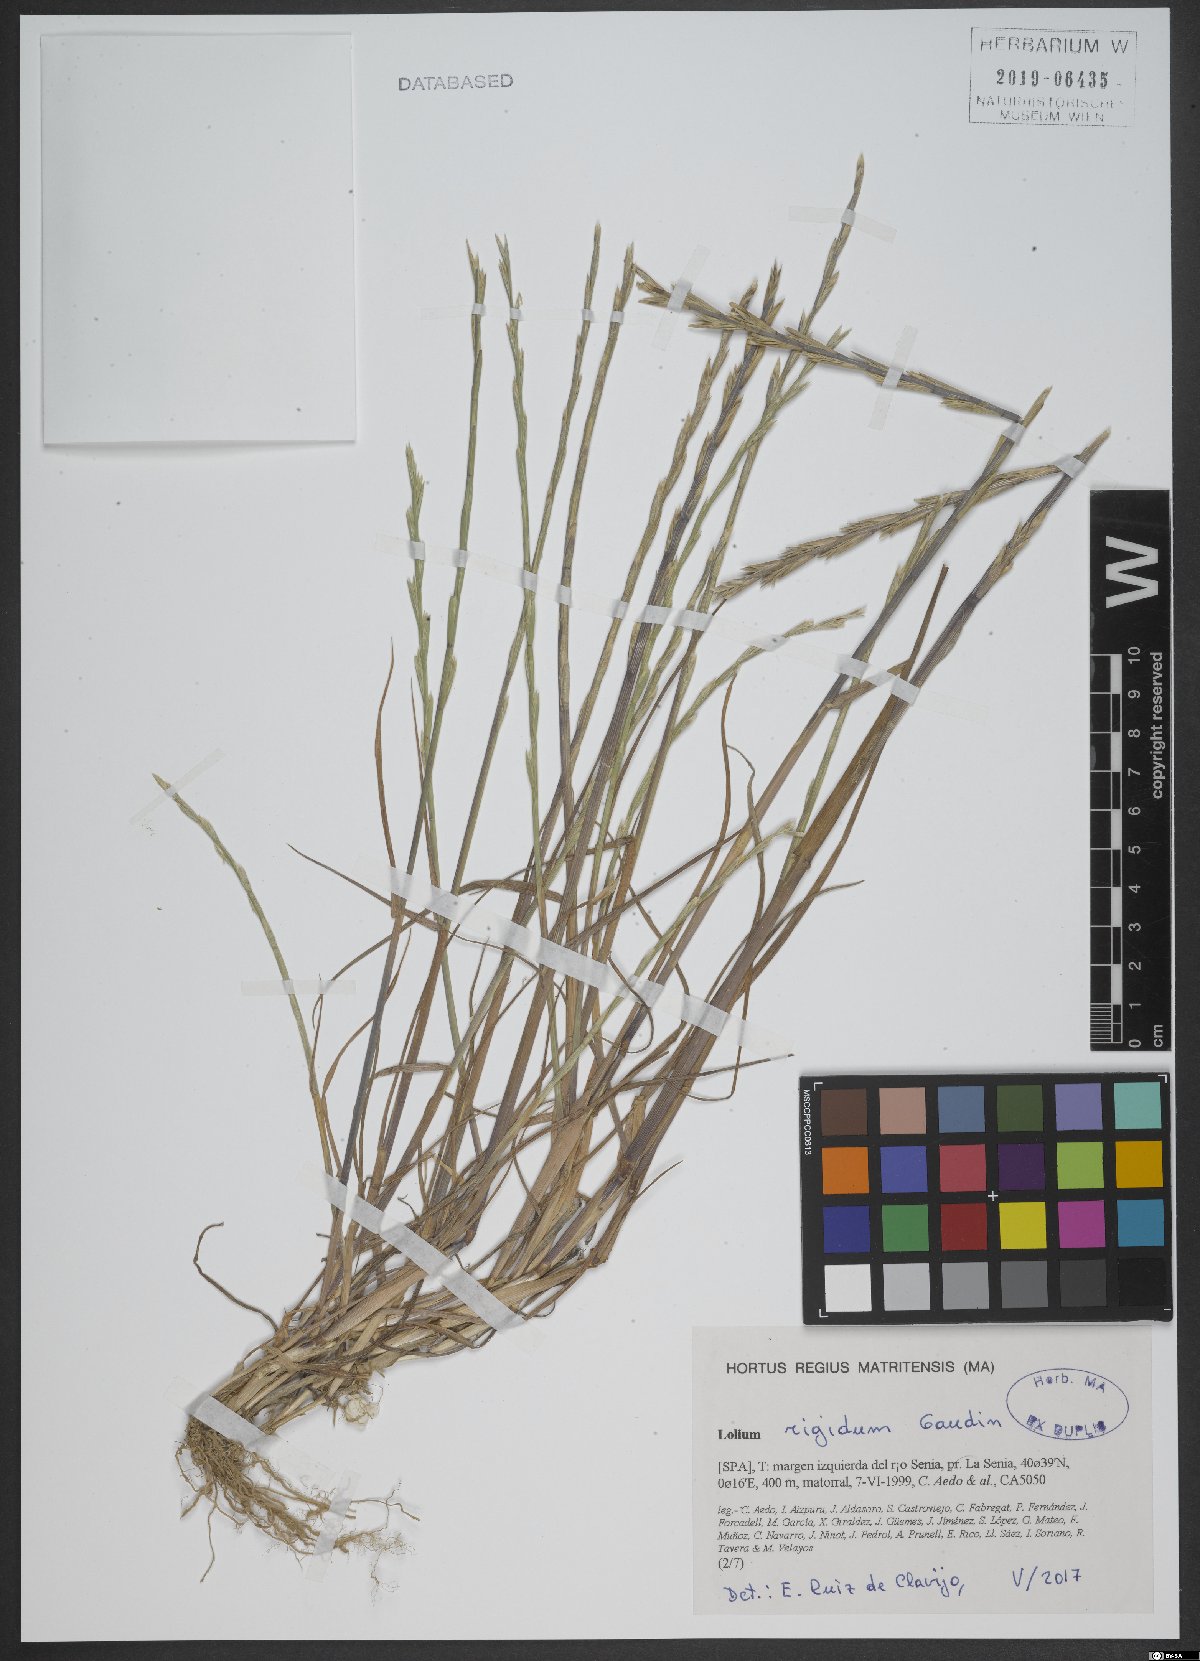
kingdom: Plantae
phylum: Tracheophyta
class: Liliopsida
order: Poales
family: Poaceae
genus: Lolium
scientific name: Lolium rigidum
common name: Wimmera ryegrass
